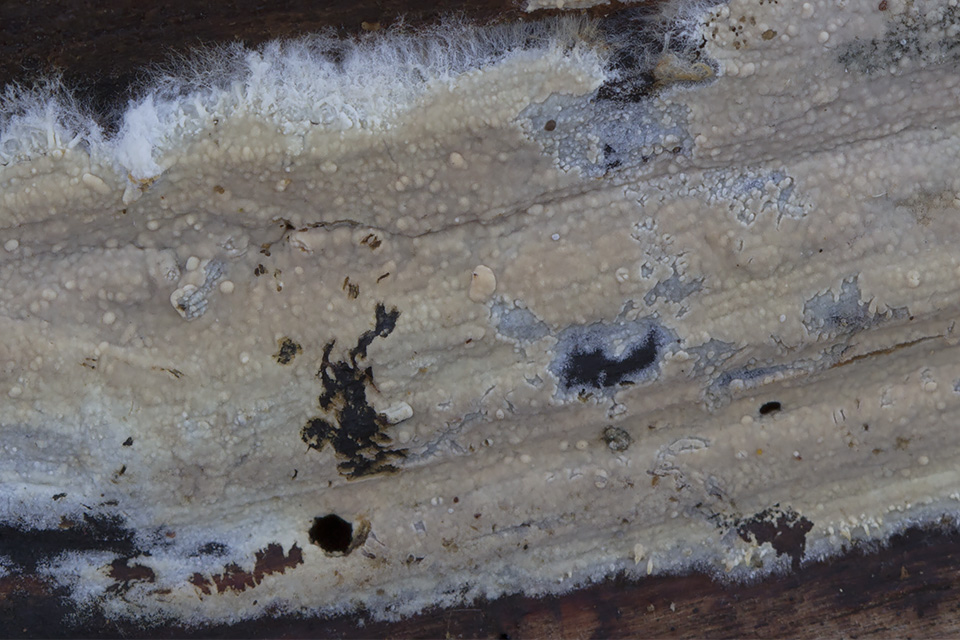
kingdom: Fungi
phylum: Basidiomycota
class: Agaricomycetes
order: Polyporales
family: Hyphodermataceae
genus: Hyphoderma
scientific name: Hyphoderma medioburiense
